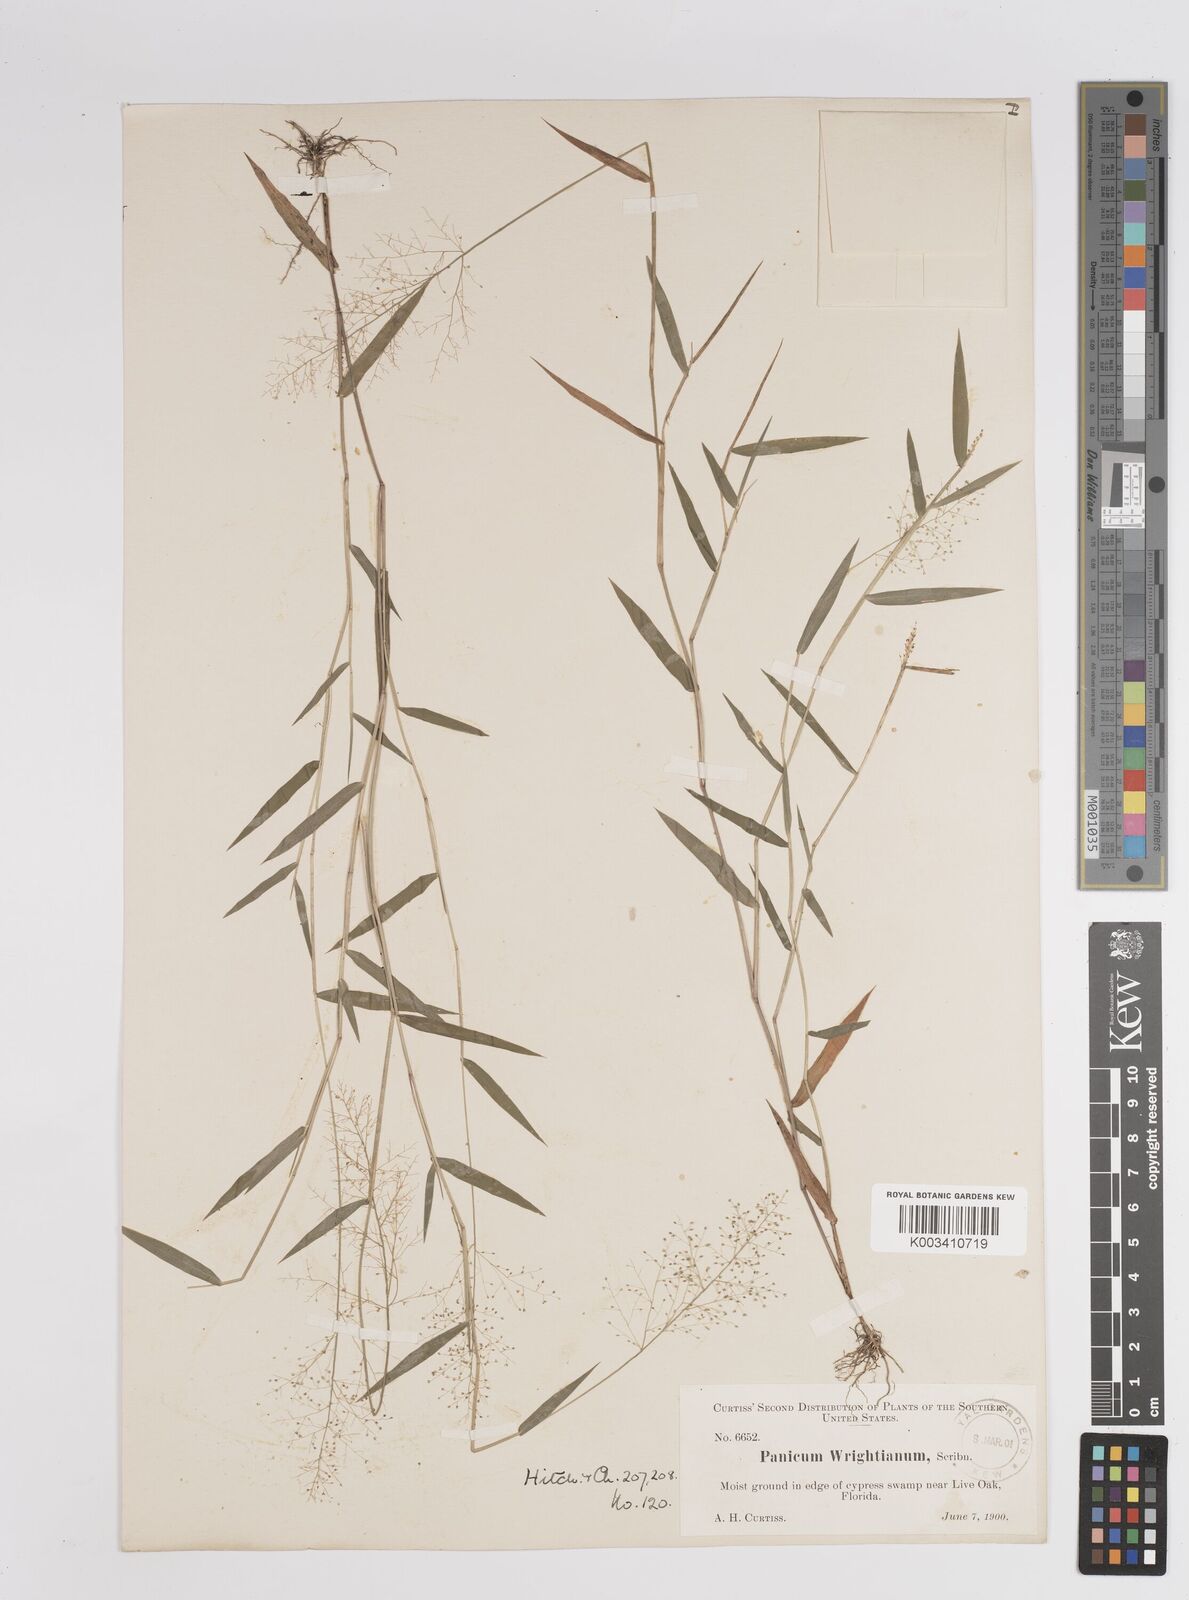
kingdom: Plantae
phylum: Tracheophyta
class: Liliopsida
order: Poales
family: Poaceae
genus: Dichanthelium
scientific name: Dichanthelium wrightianum
